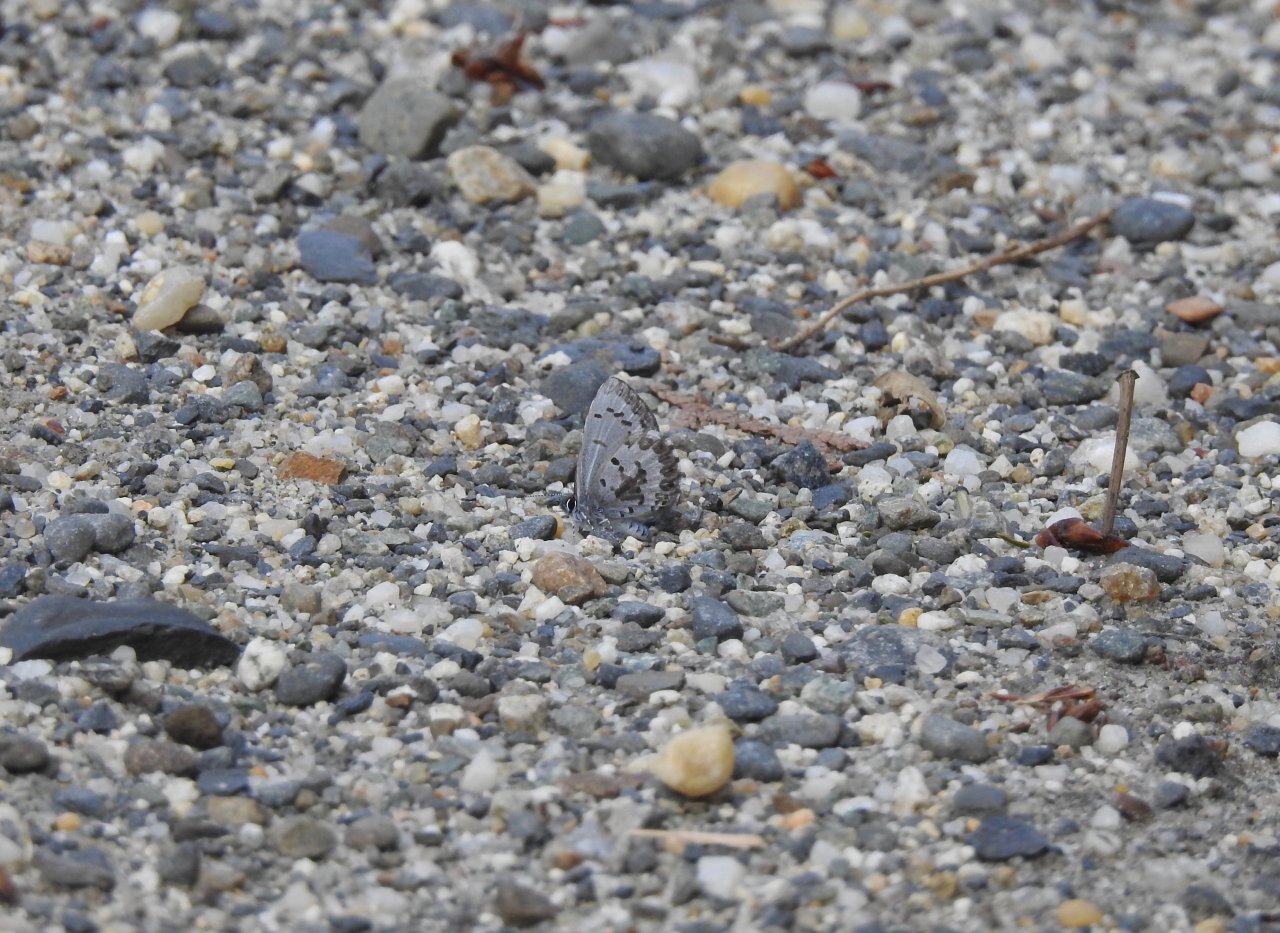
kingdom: Animalia
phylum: Arthropoda
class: Insecta
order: Lepidoptera
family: Lycaenidae
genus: Celastrina
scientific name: Celastrina lucia
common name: Northern Spring Azure
